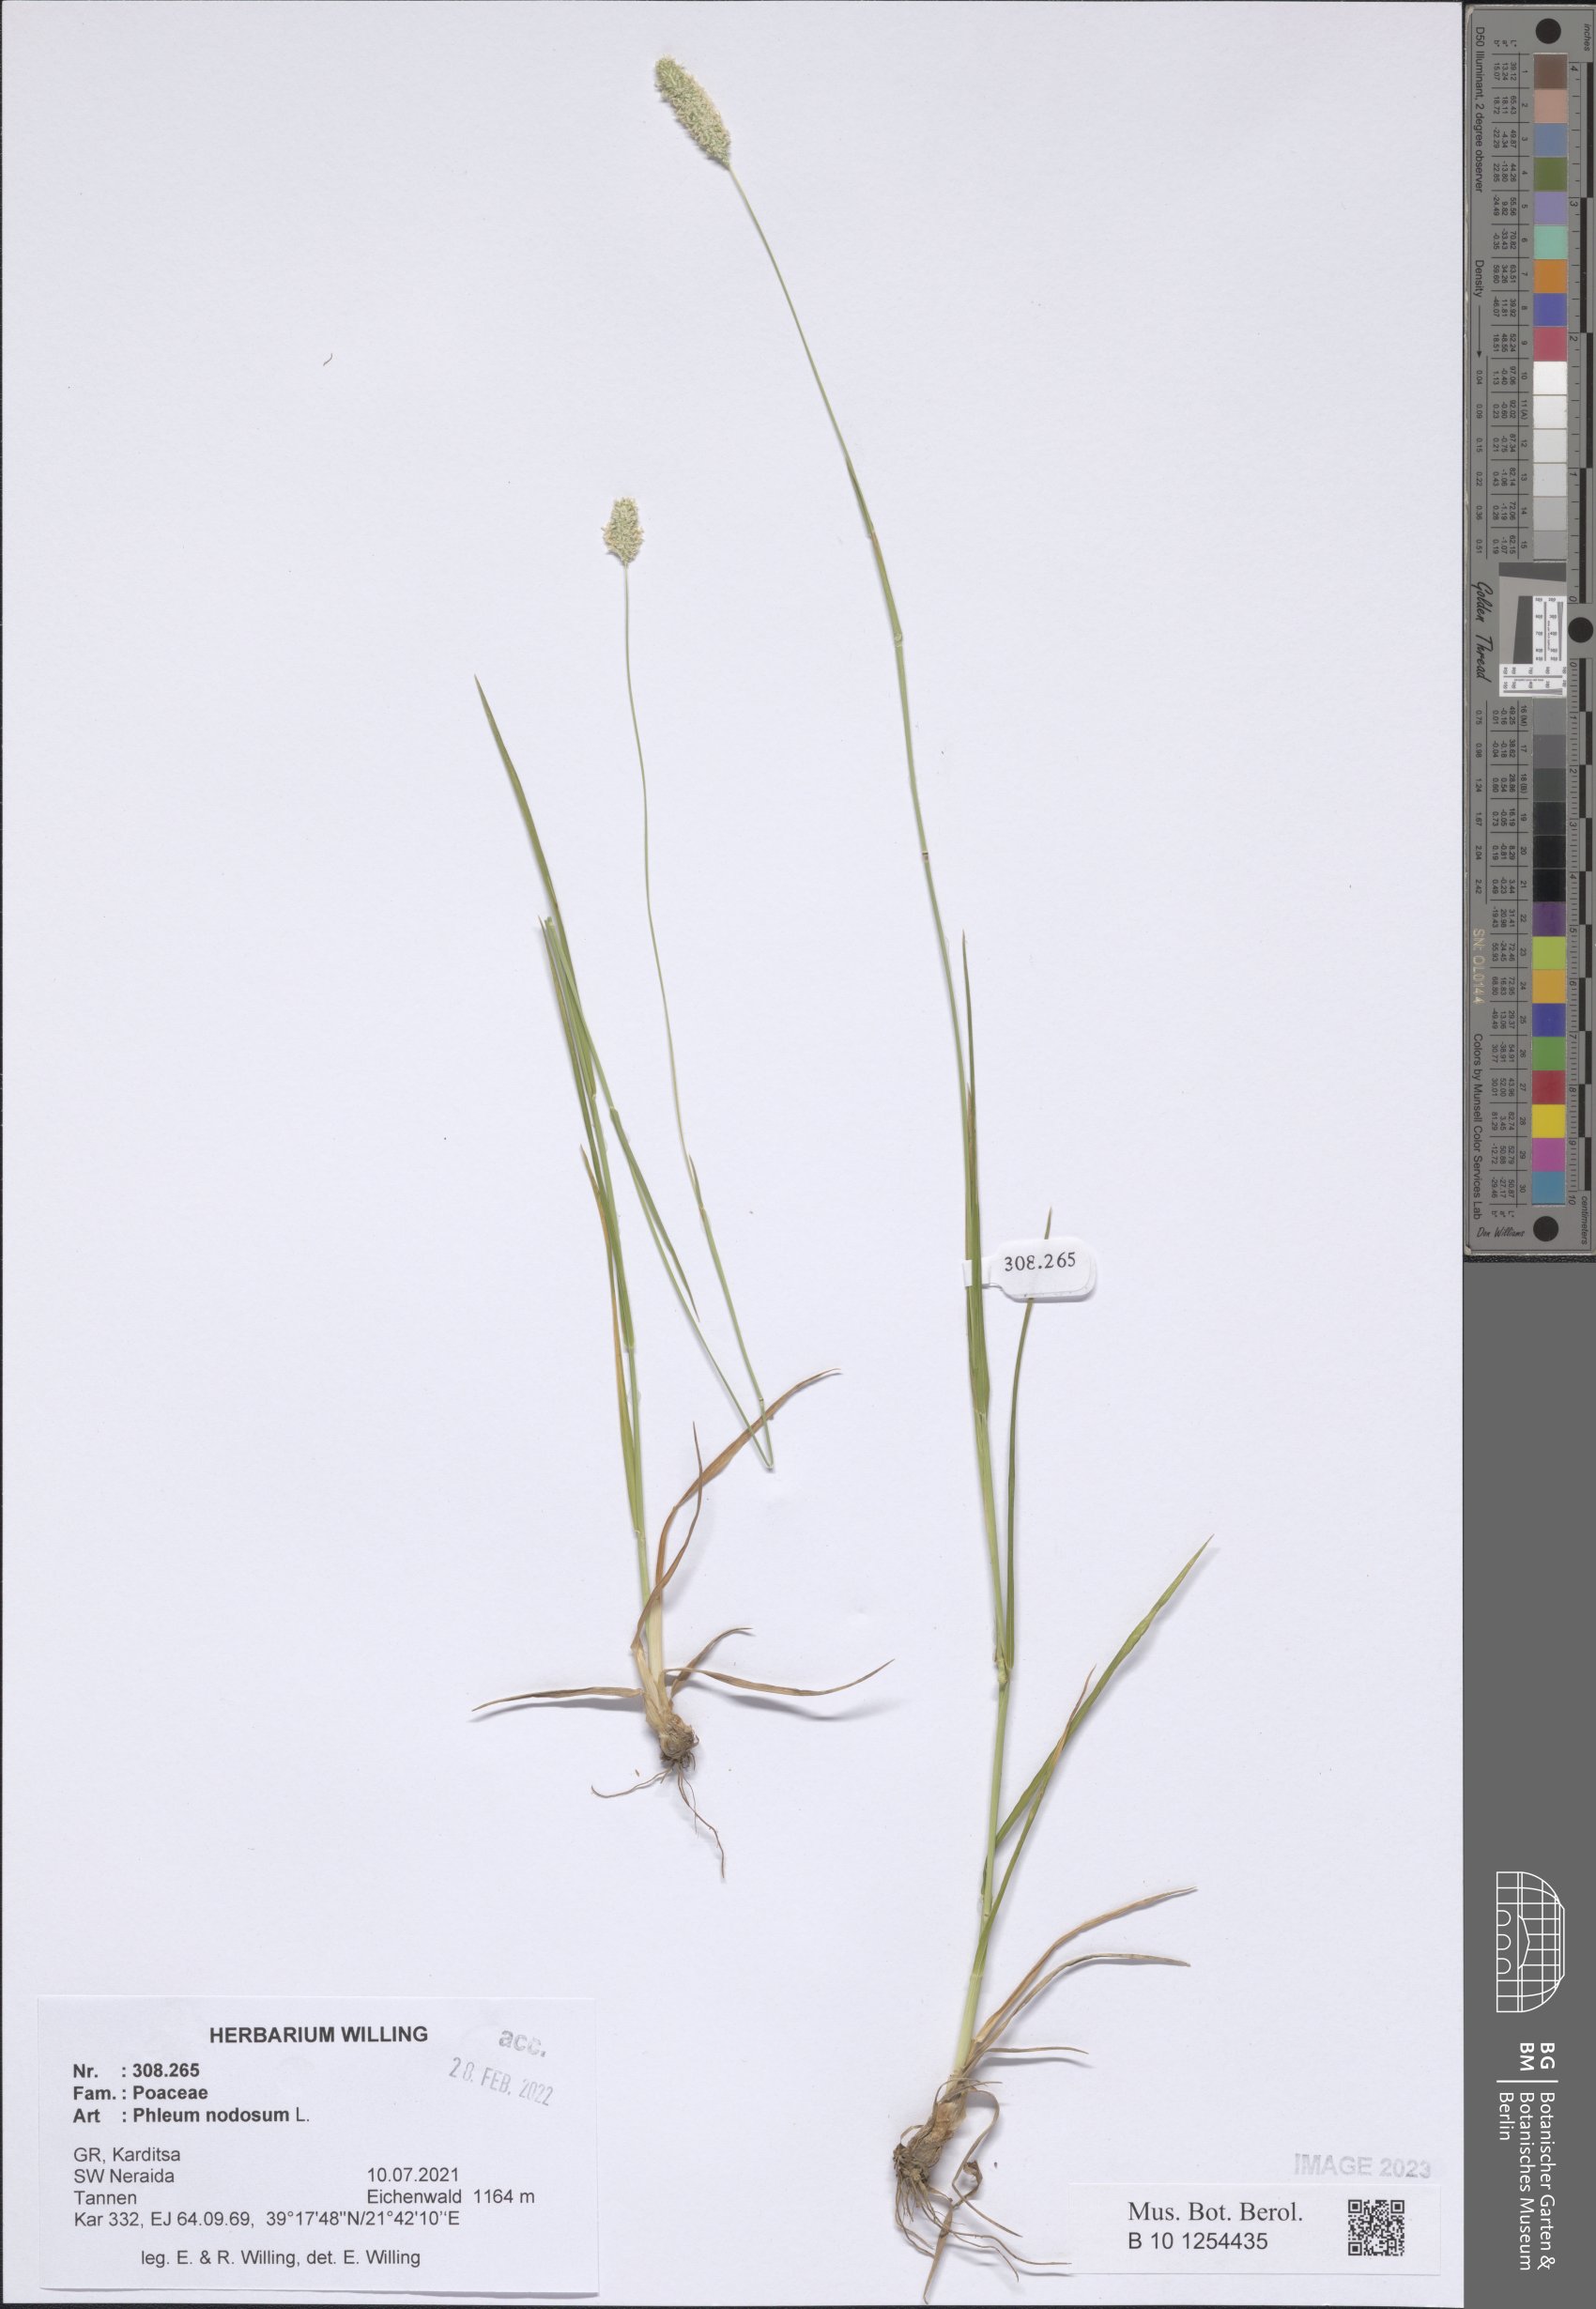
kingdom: Plantae
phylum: Tracheophyta
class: Liliopsida
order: Poales
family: Poaceae
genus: Phleum
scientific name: Phleum pratense
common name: Timothy grass
